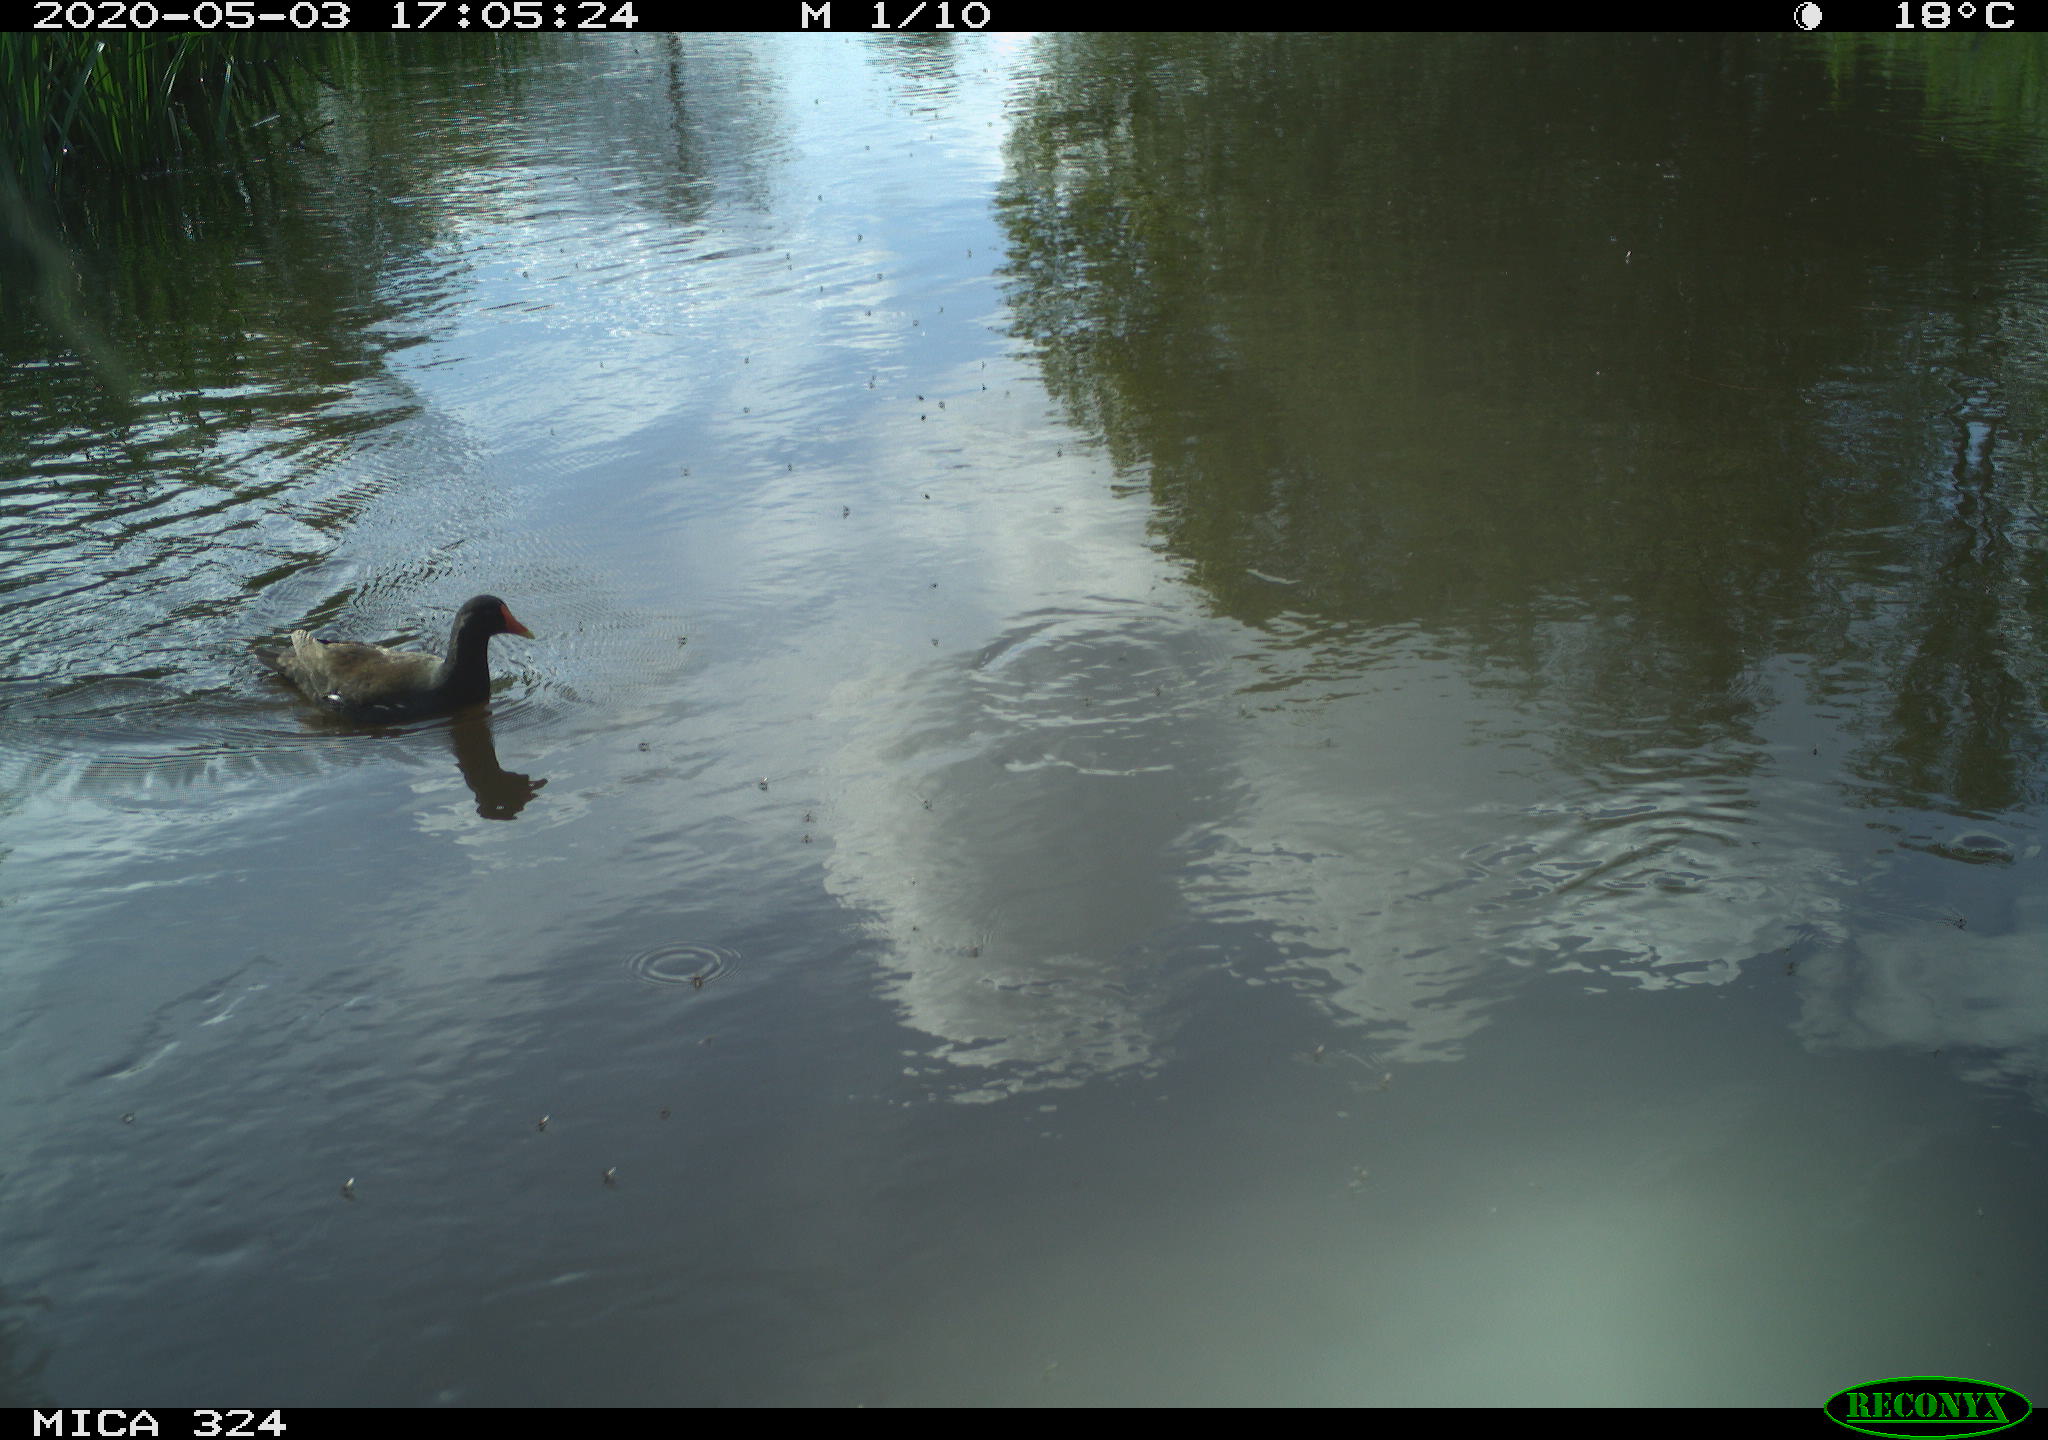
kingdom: Animalia
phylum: Chordata
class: Aves
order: Gruiformes
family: Rallidae
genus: Gallinula
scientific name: Gallinula chloropus
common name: Common moorhen
